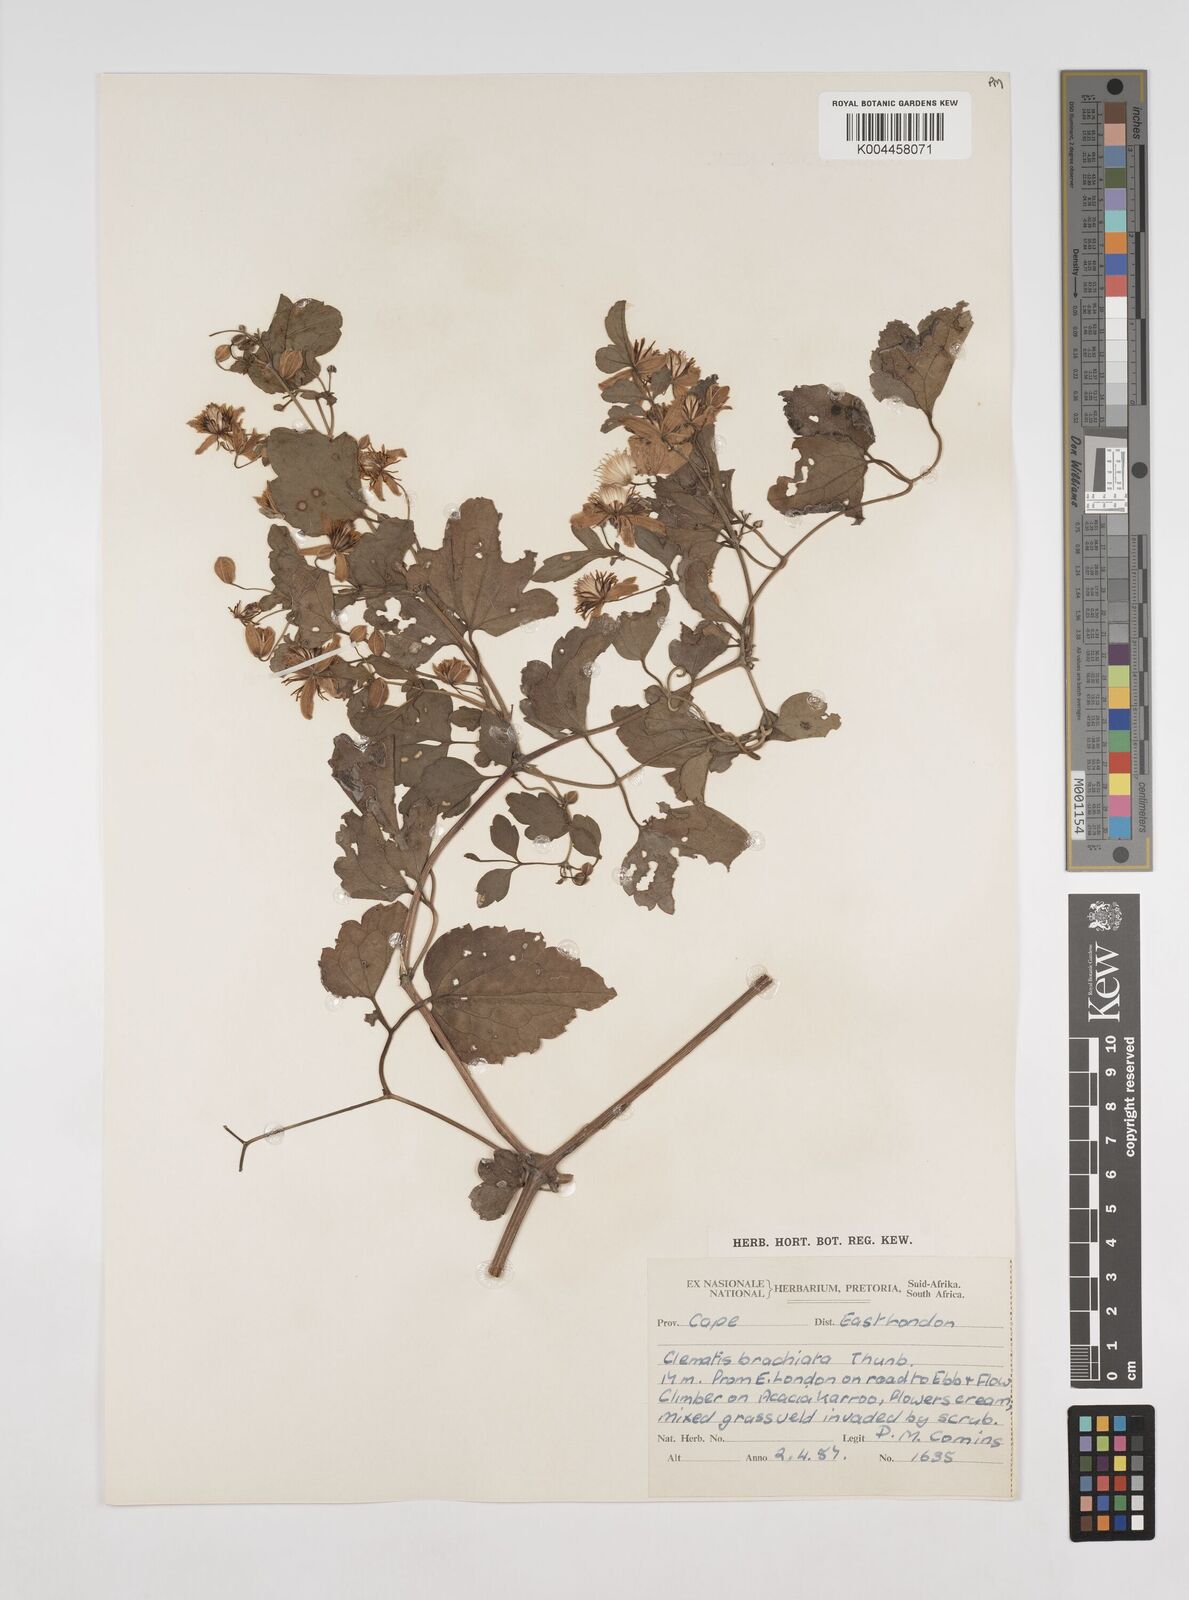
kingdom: Plantae
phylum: Tracheophyta
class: Magnoliopsida
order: Ranunculales
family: Ranunculaceae
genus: Clematis
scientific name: Clematis brachiata
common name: Traveler's-joy
